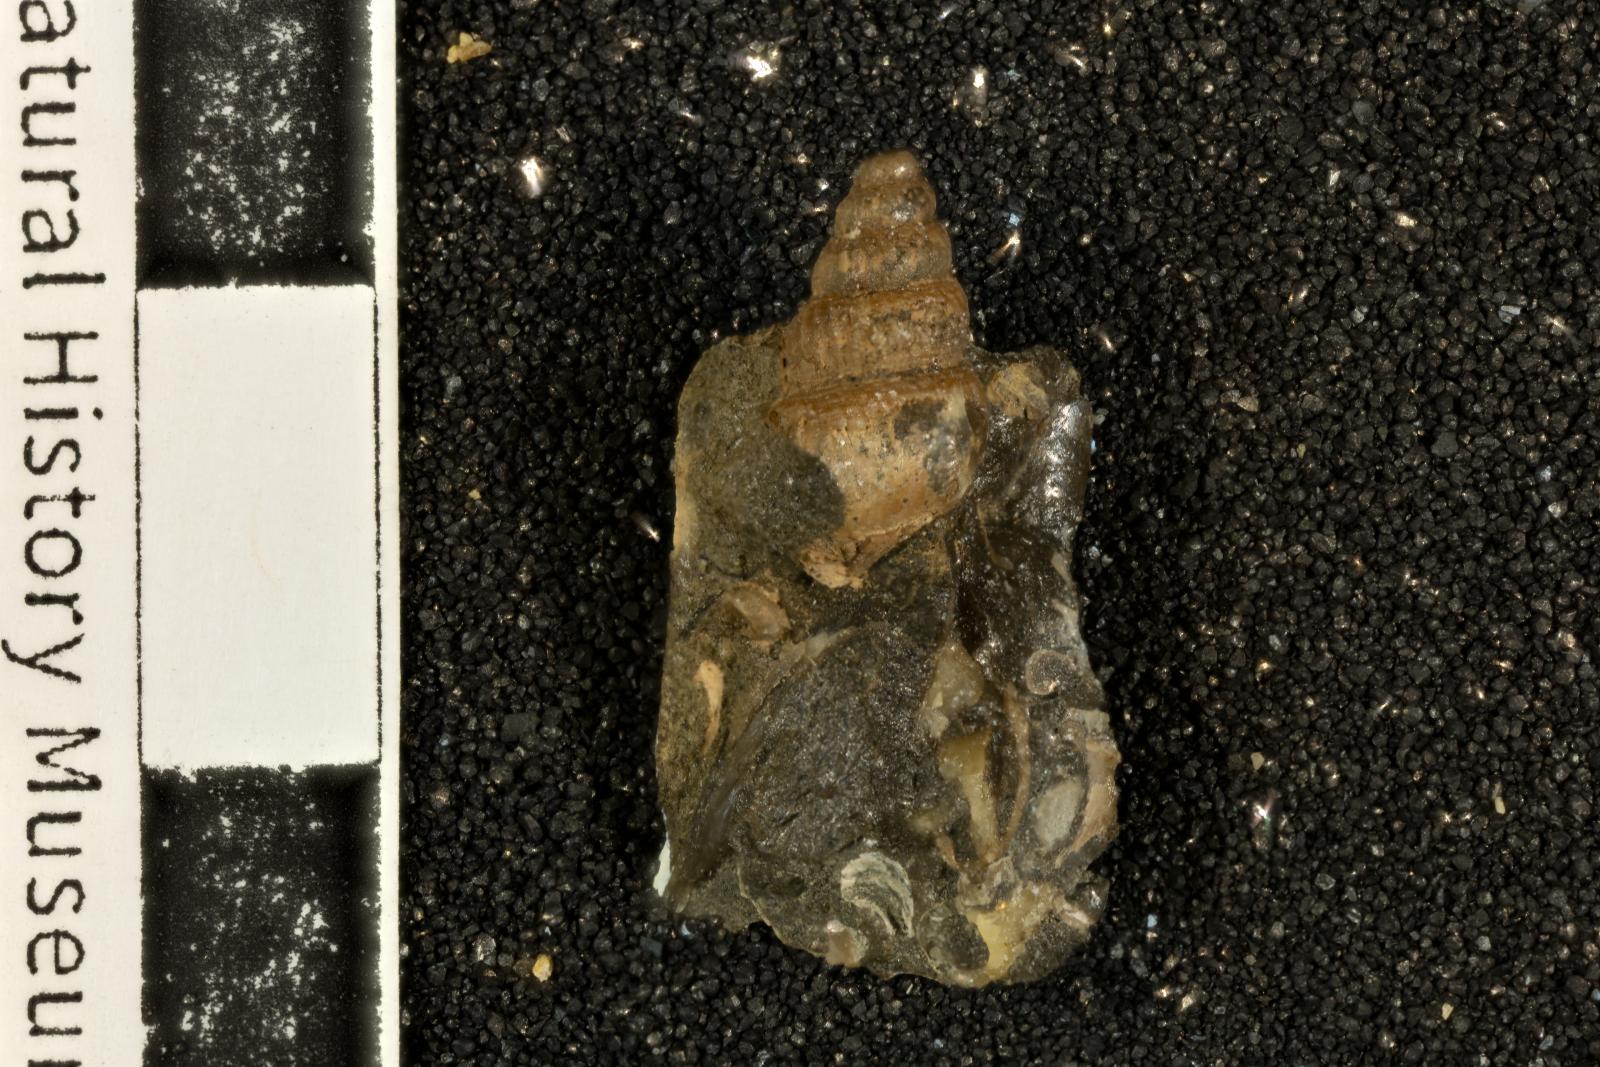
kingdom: Animalia
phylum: Mollusca
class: Gastropoda
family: Paskentanidae
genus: Atresius
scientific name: Atresius liratus
